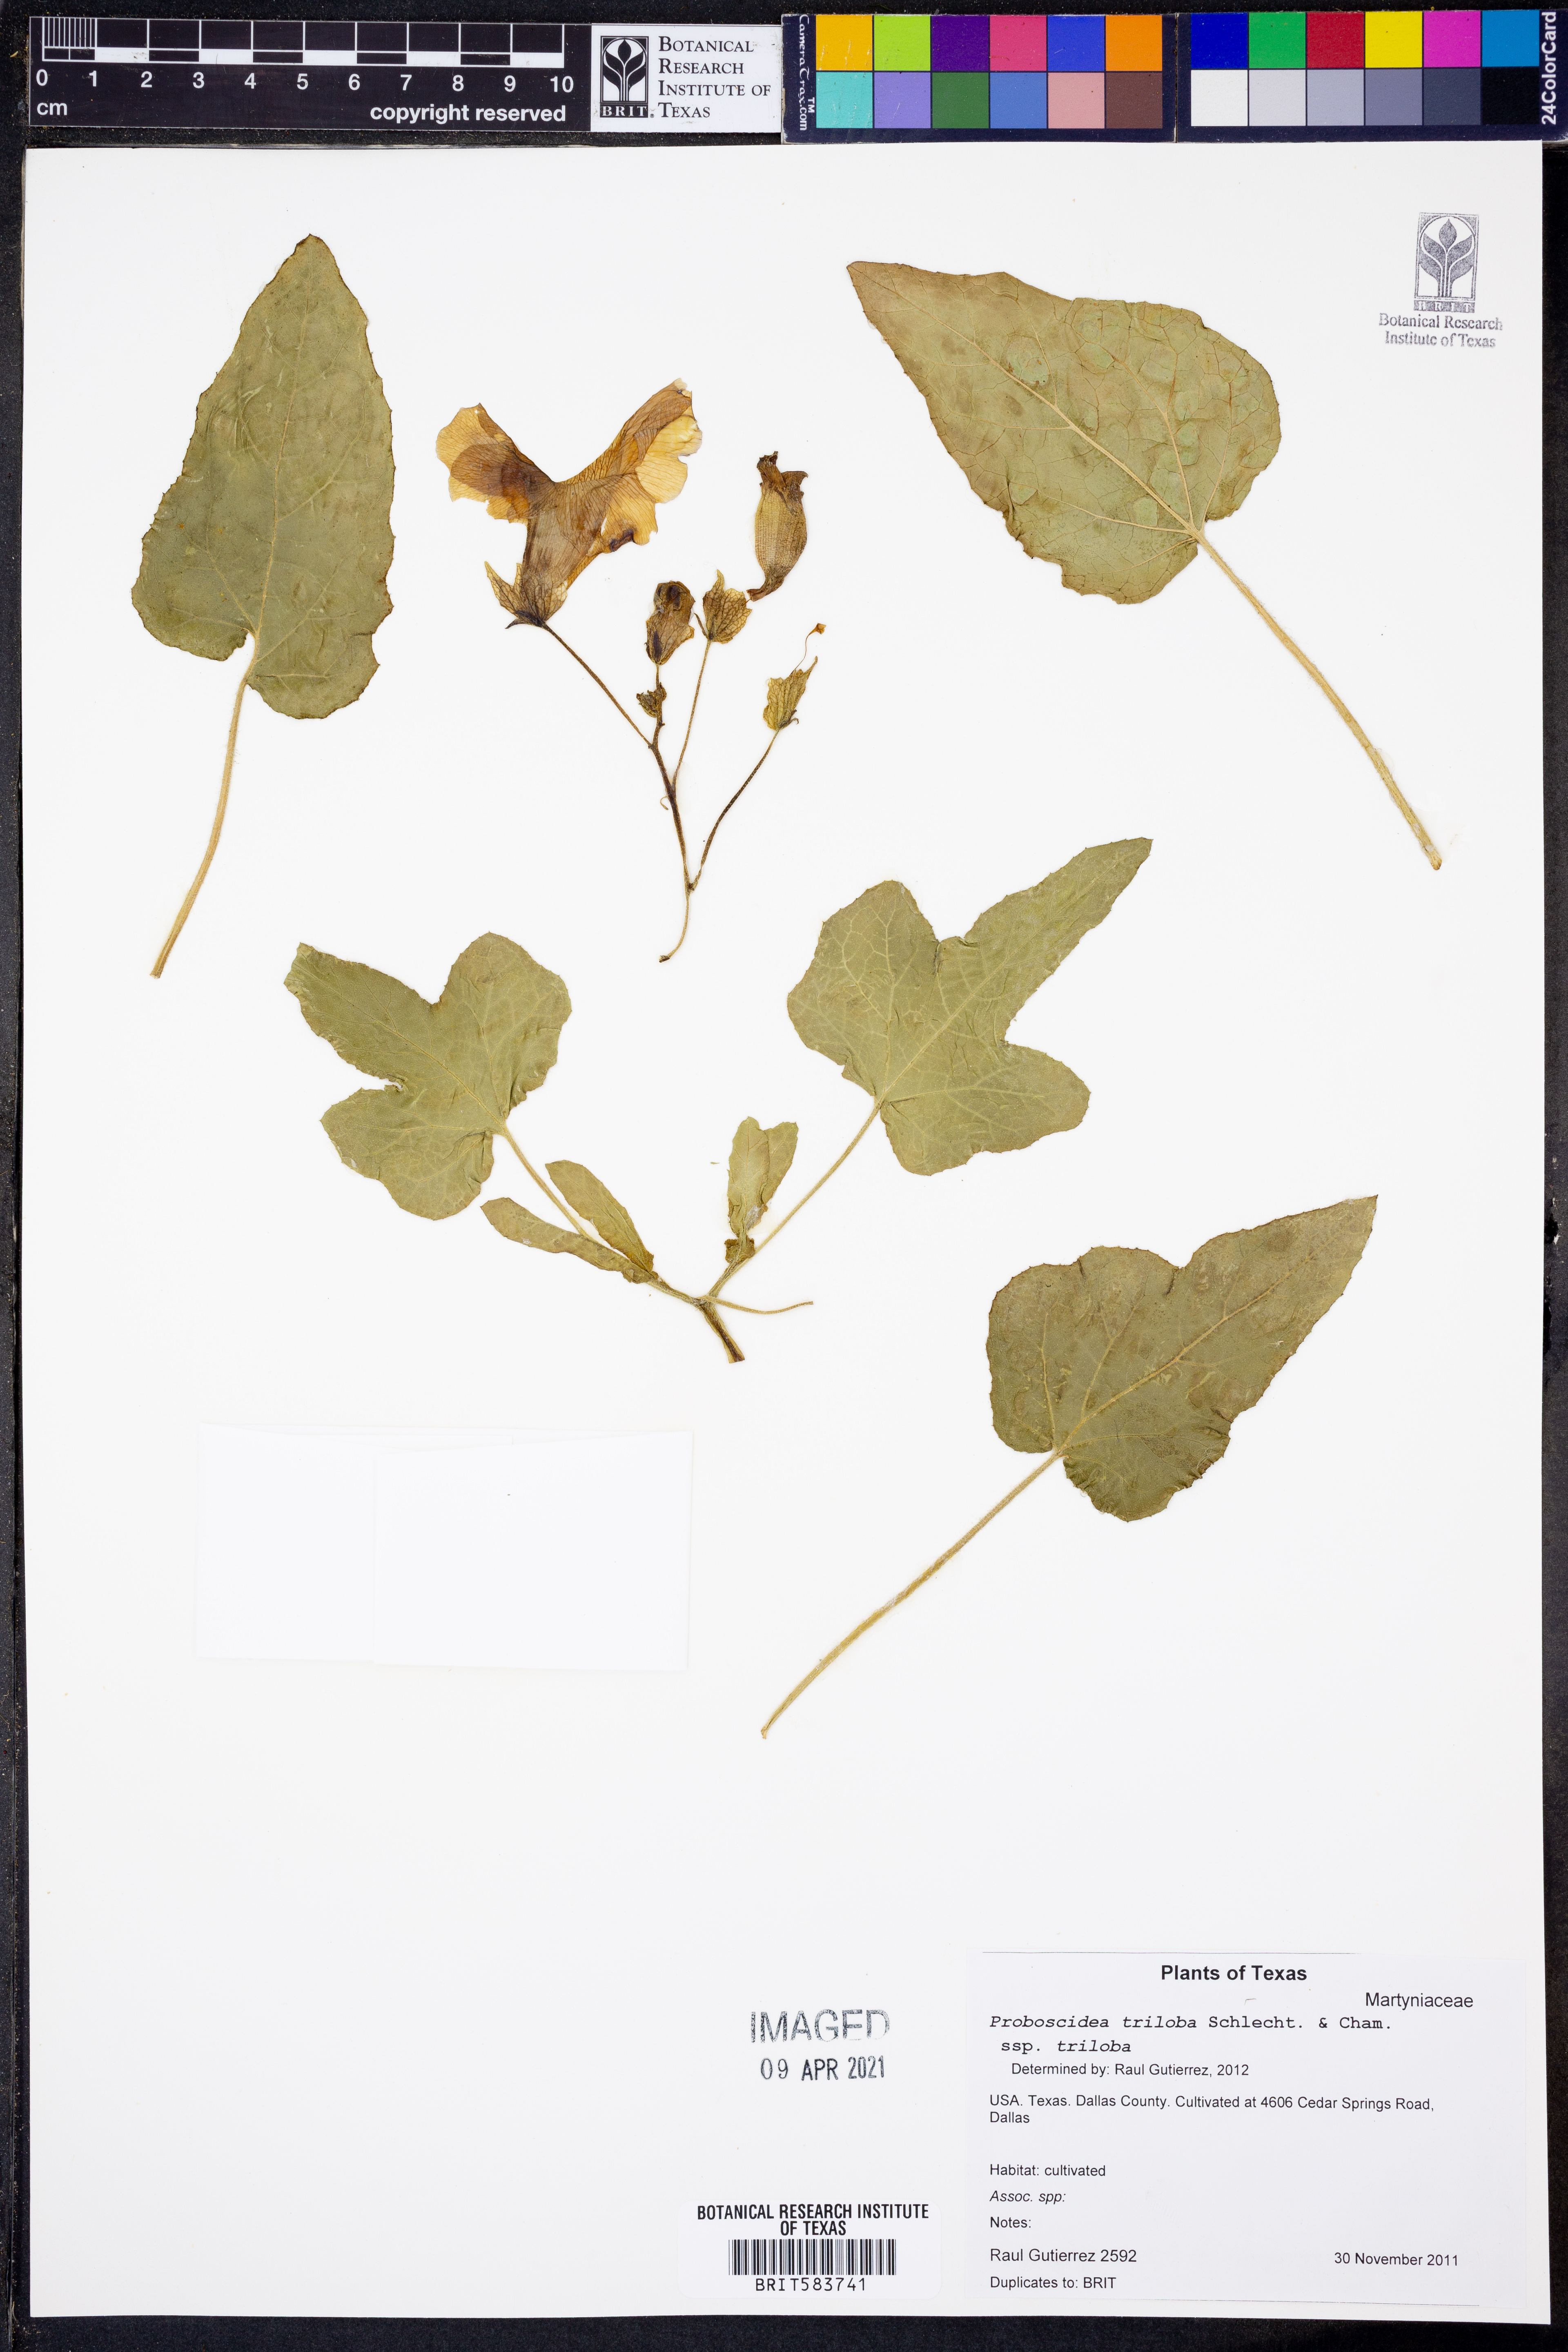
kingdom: Plantae
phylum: Tracheophyta
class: Magnoliopsida
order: Lamiales
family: Martyniaceae
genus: Proboscidea
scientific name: Proboscidea triloba
